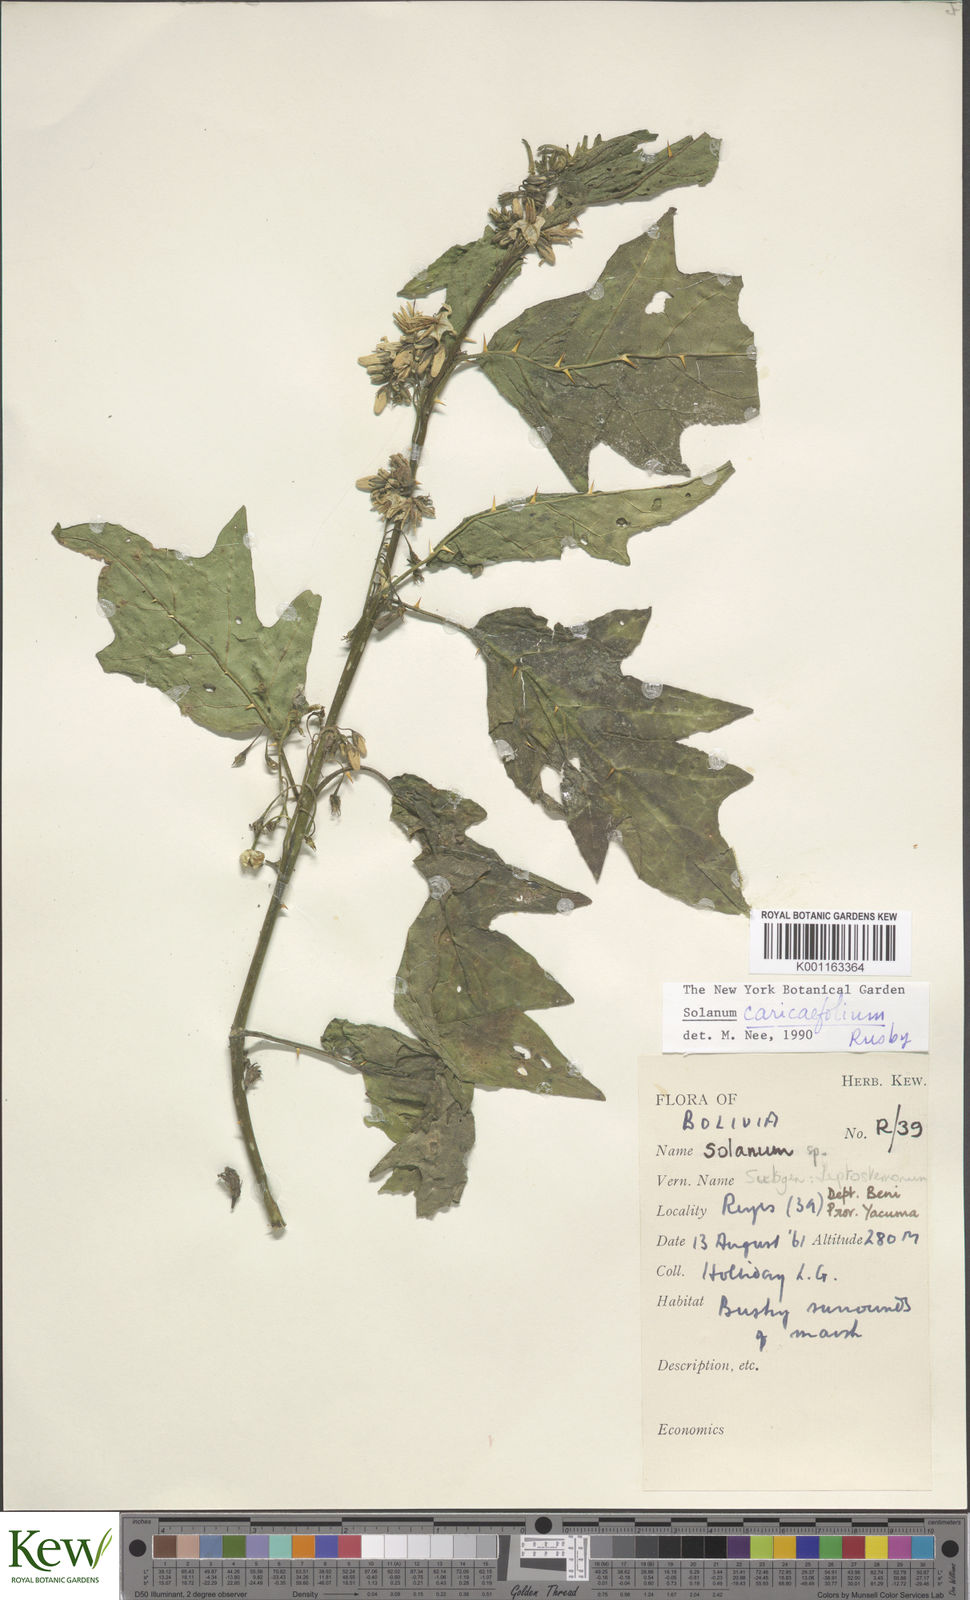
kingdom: Plantae
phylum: Tracheophyta
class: Magnoliopsida
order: Solanales
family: Solanaceae
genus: Solanum
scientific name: Solanum caricaefolium
